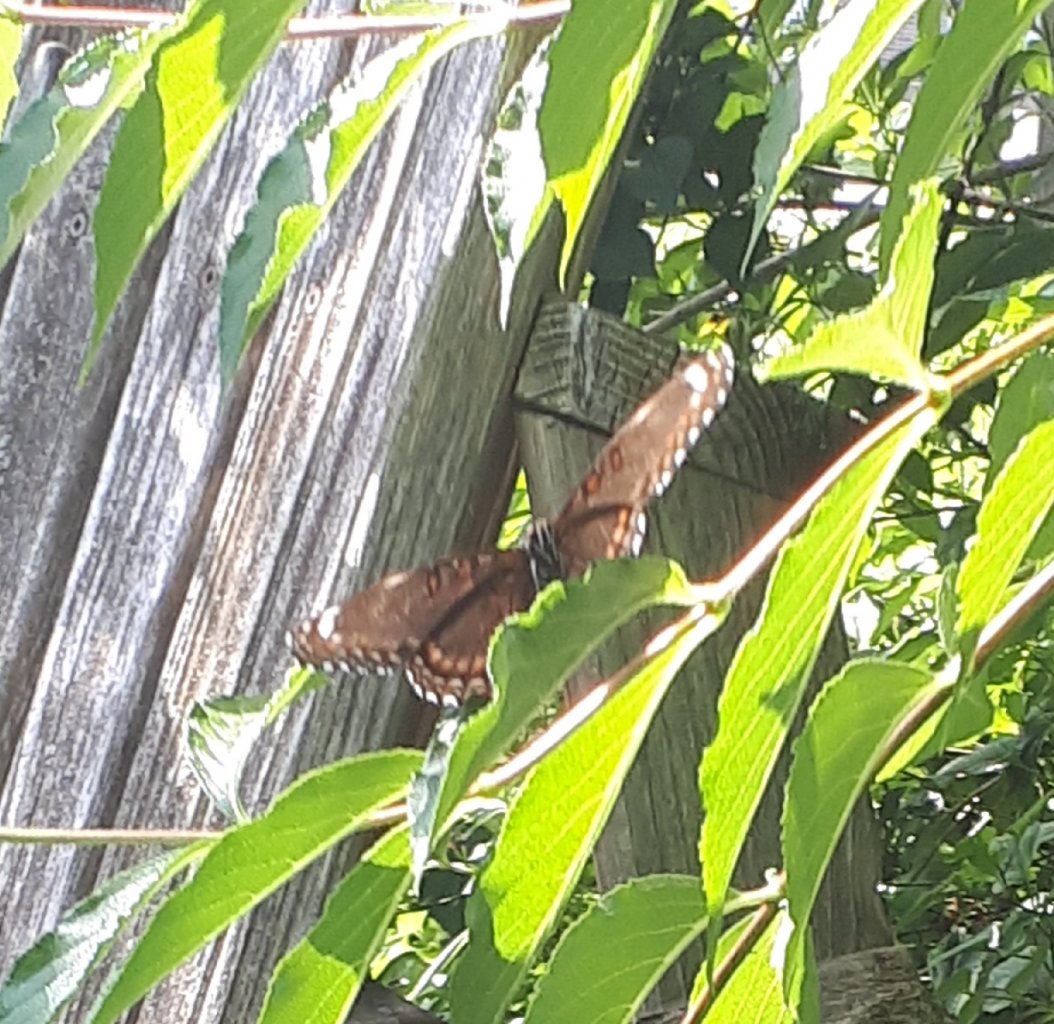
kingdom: Animalia
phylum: Arthropoda
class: Insecta
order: Lepidoptera
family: Nymphalidae
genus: Limenitis
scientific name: Limenitis
